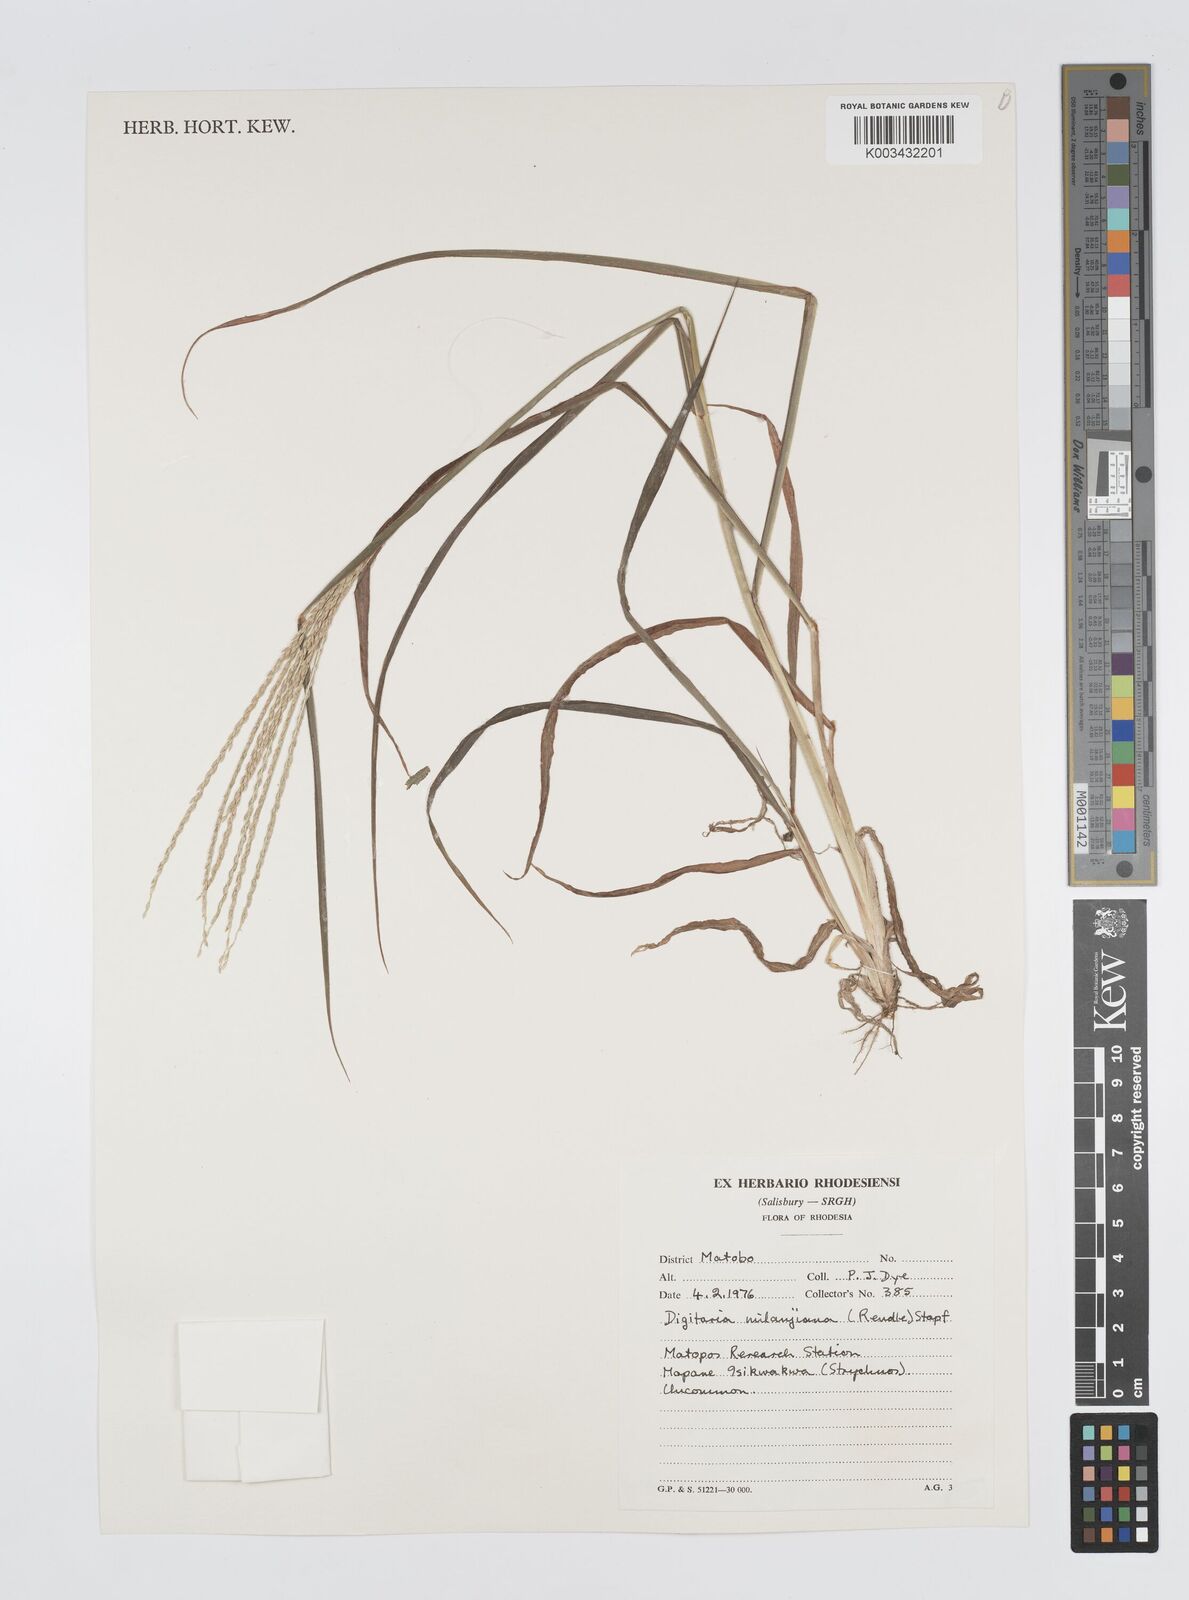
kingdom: Plantae
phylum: Tracheophyta
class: Liliopsida
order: Poales
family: Poaceae
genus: Digitaria
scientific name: Digitaria milanjiana
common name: Madagascar crabgrass
